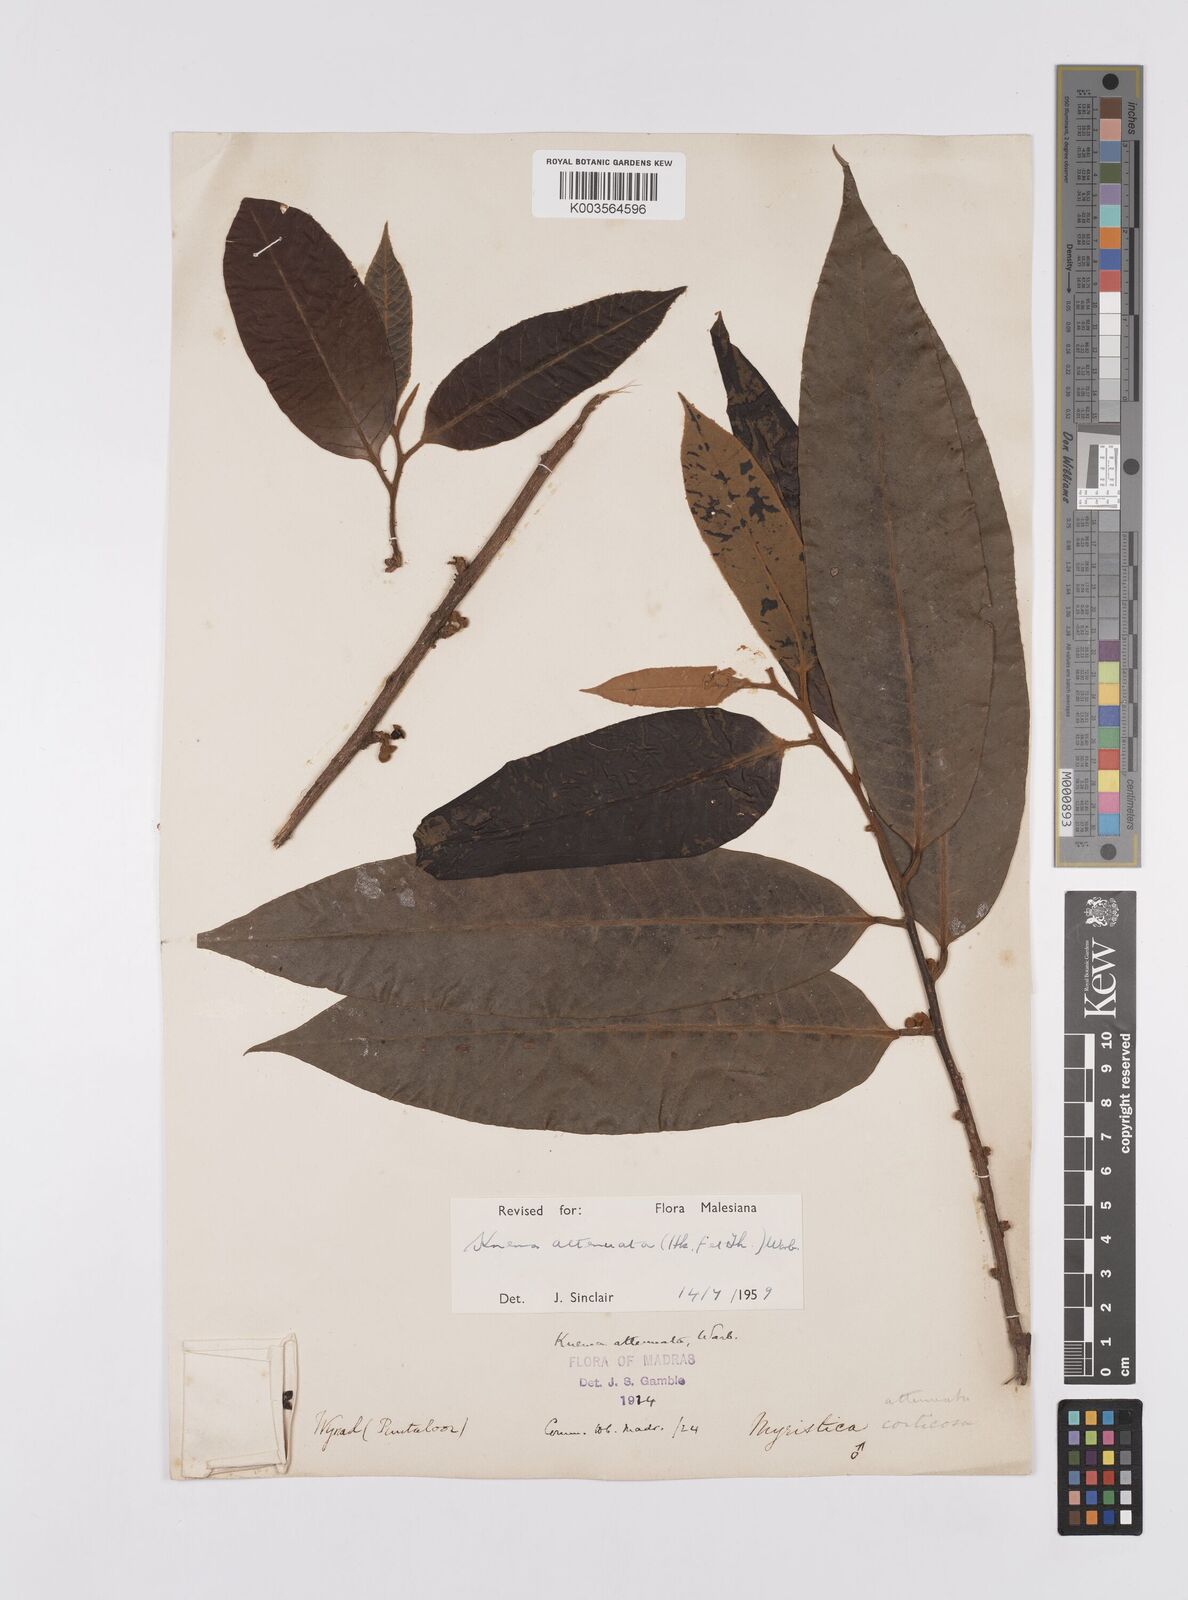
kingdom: Plantae
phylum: Tracheophyta
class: Magnoliopsida
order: Magnoliales
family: Myristicaceae
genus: Knema
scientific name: Knema attenuata
